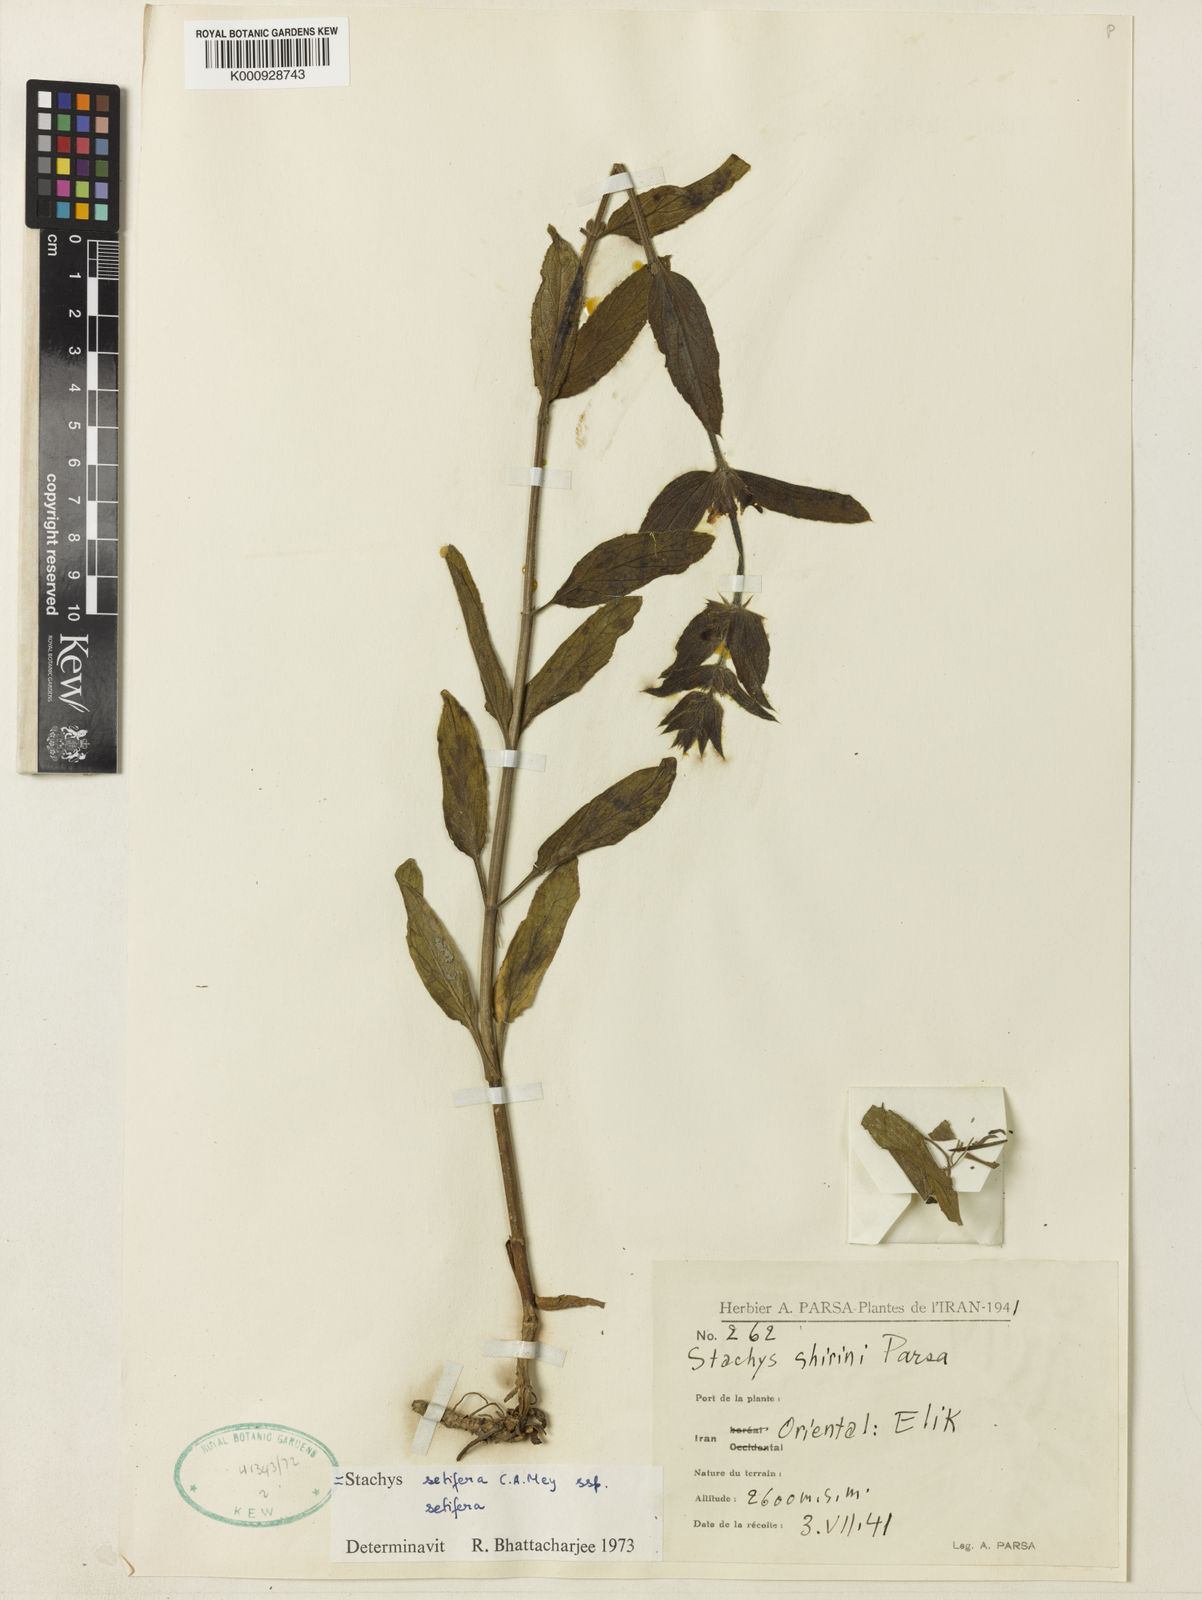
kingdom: Plantae
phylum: Tracheophyta
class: Magnoliopsida
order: Lamiales
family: Lamiaceae
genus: Stachys
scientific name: Stachys setifera
